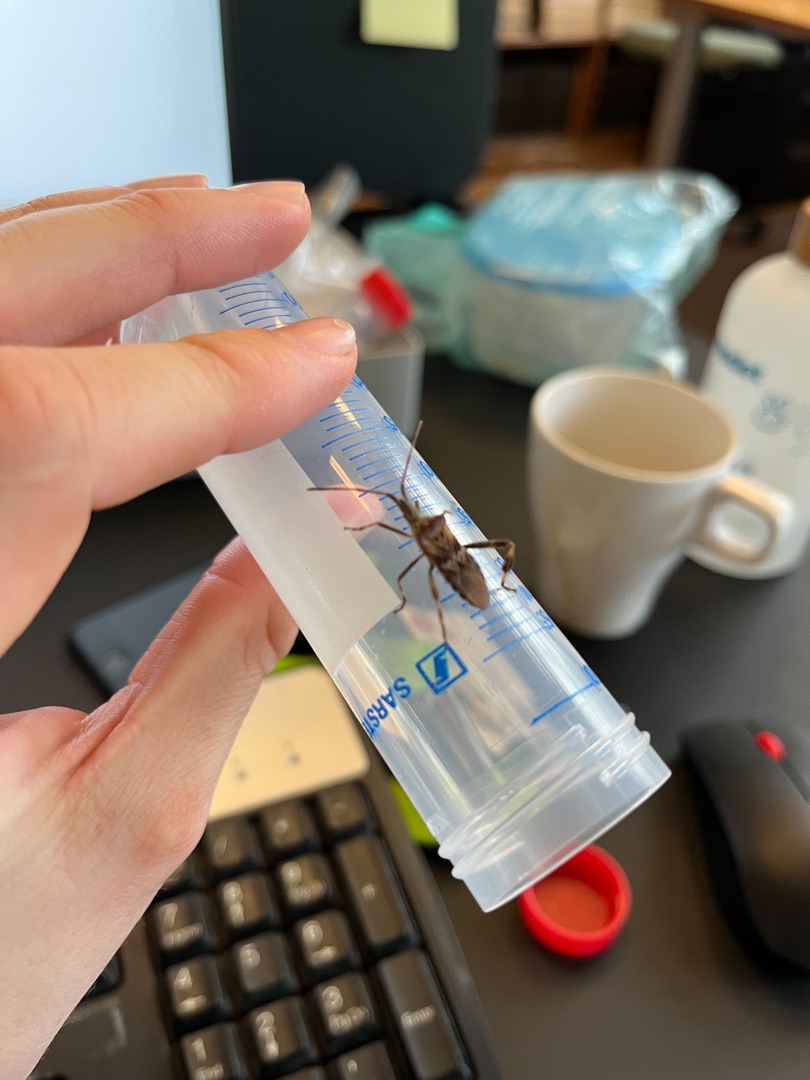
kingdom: Animalia
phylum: Arthropoda
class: Insecta
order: Hemiptera
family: Coreidae
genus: Leptoglossus
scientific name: Leptoglossus occidentalis
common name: Amerikansk fyrretæge
